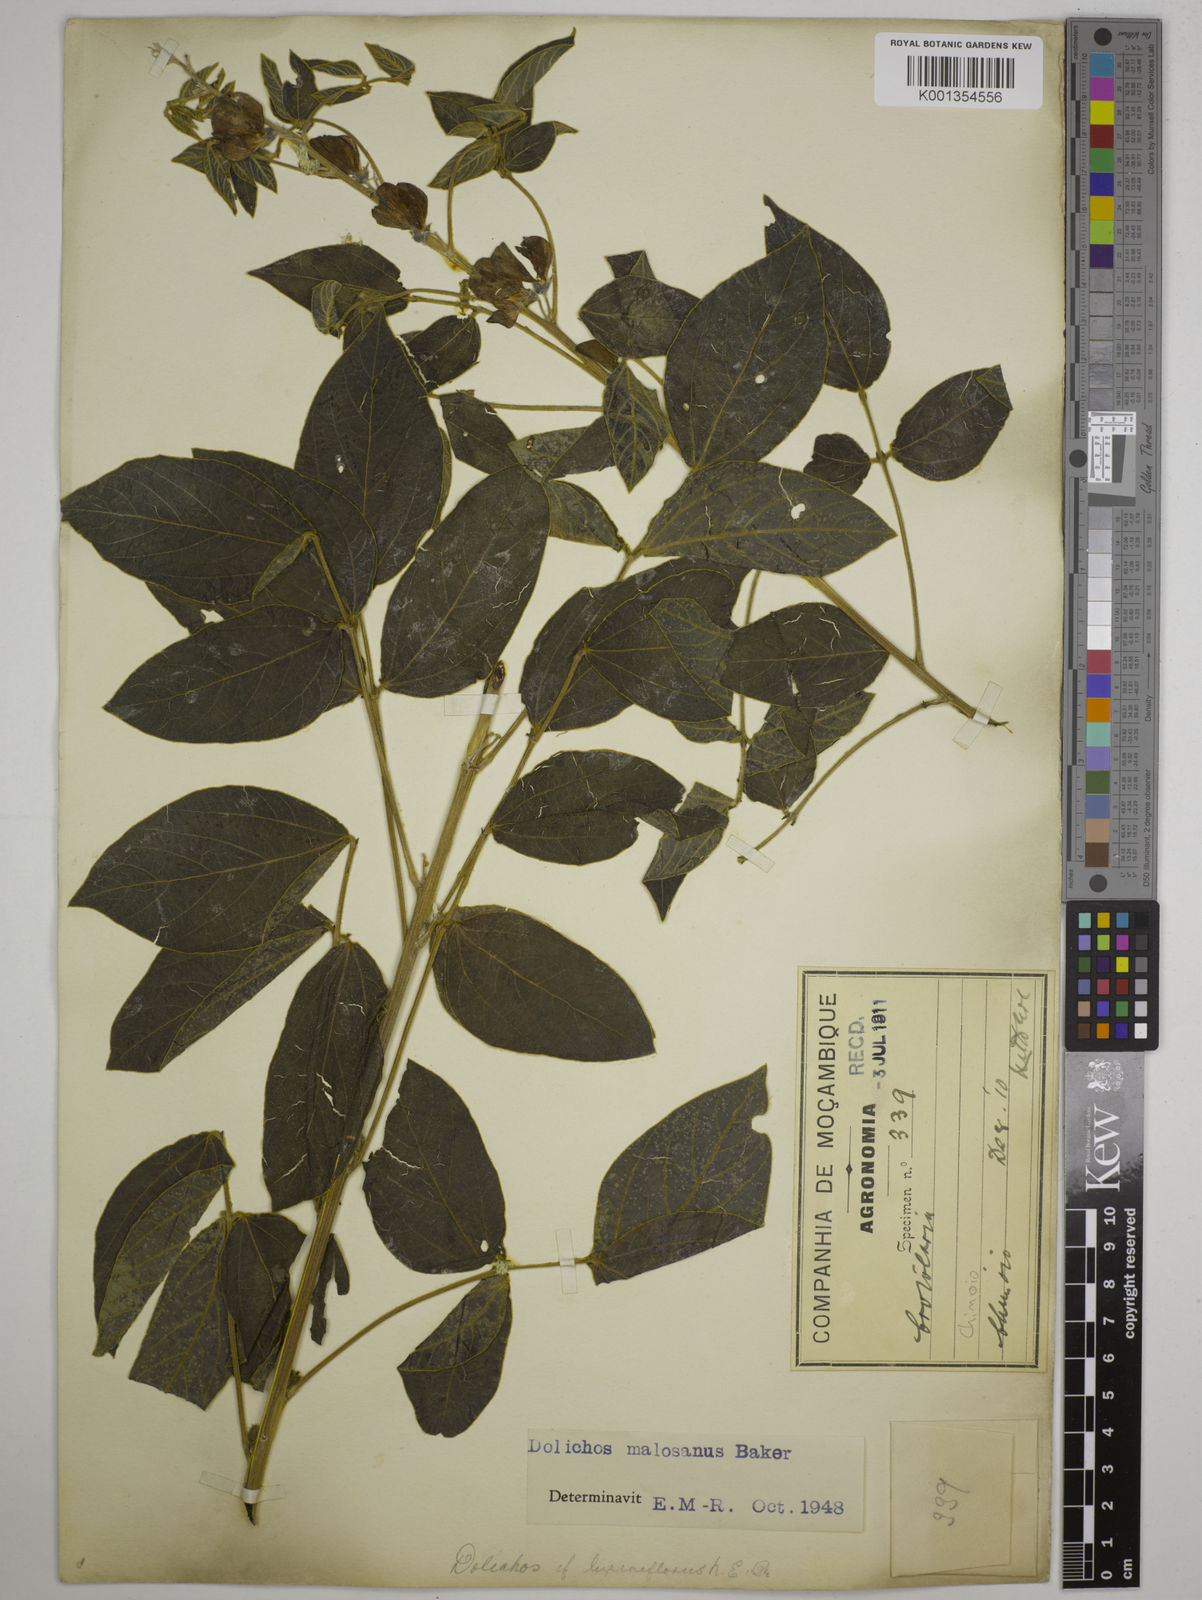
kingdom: Plantae
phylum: Tracheophyta
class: Magnoliopsida
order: Fabales
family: Fabaceae
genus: Dolichos
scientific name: Dolichos kilimandscharicus
